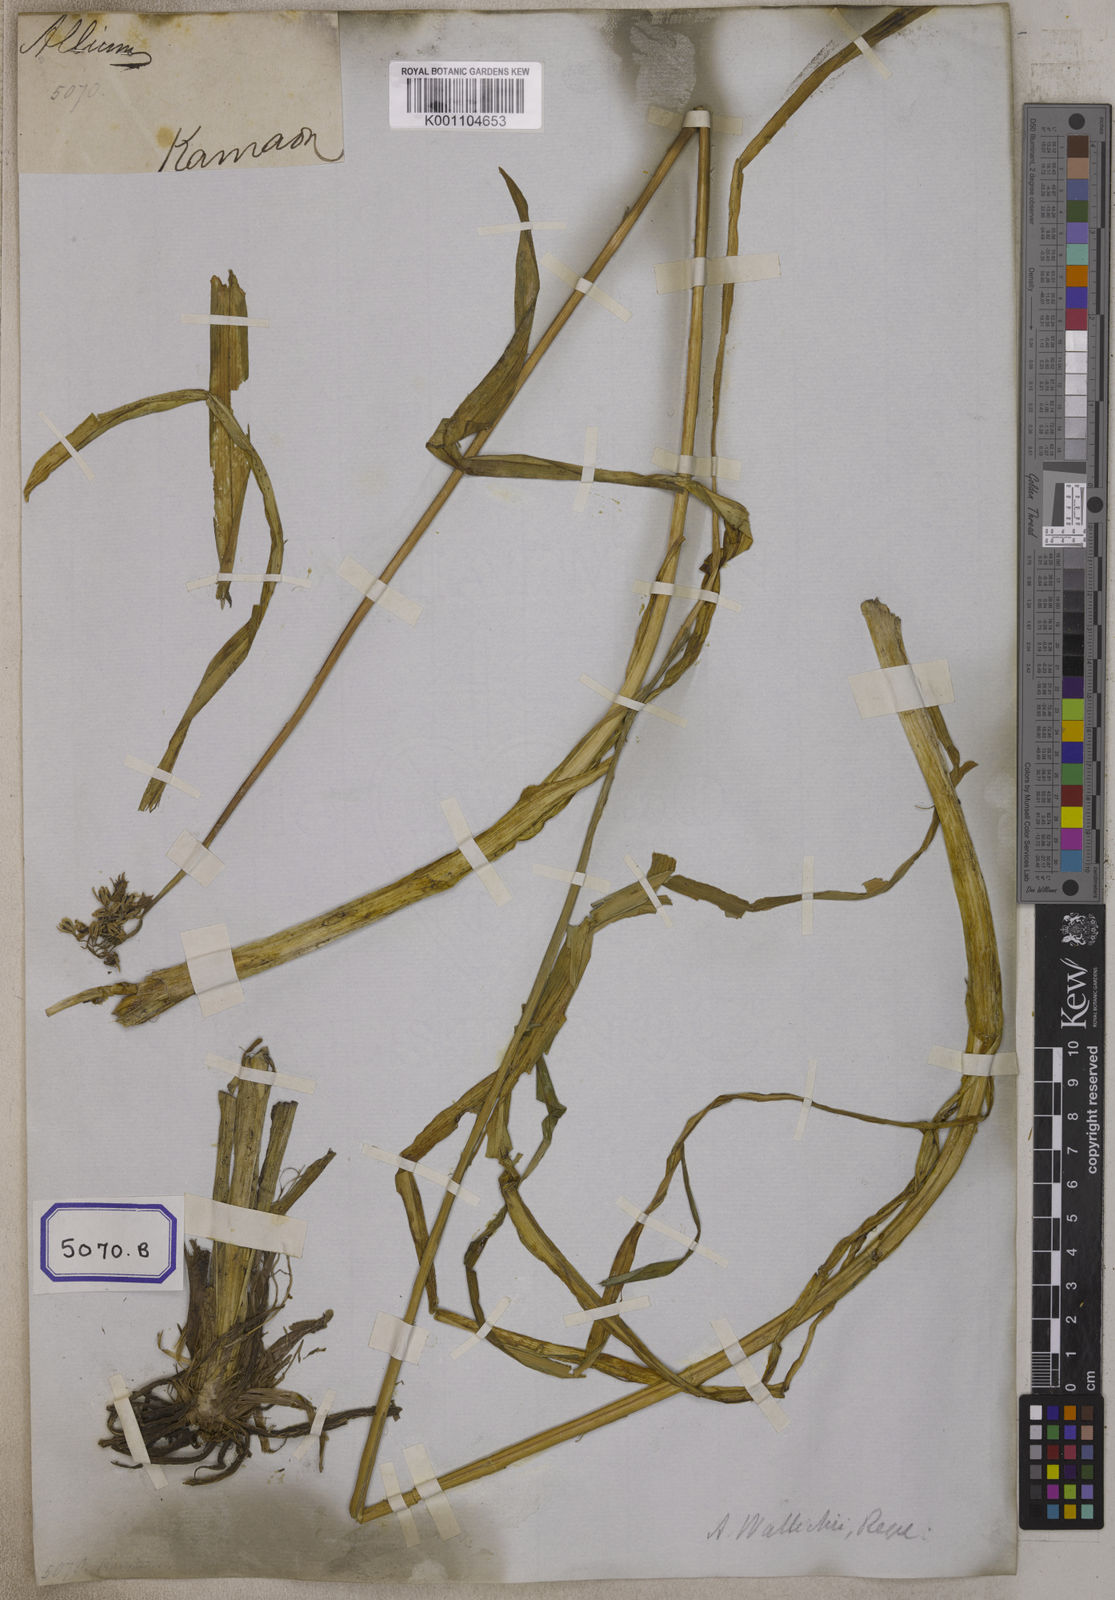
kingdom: Plantae
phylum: Tracheophyta
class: Liliopsida
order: Asparagales
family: Amaryllidaceae
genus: Allium
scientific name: Allium wallichii
